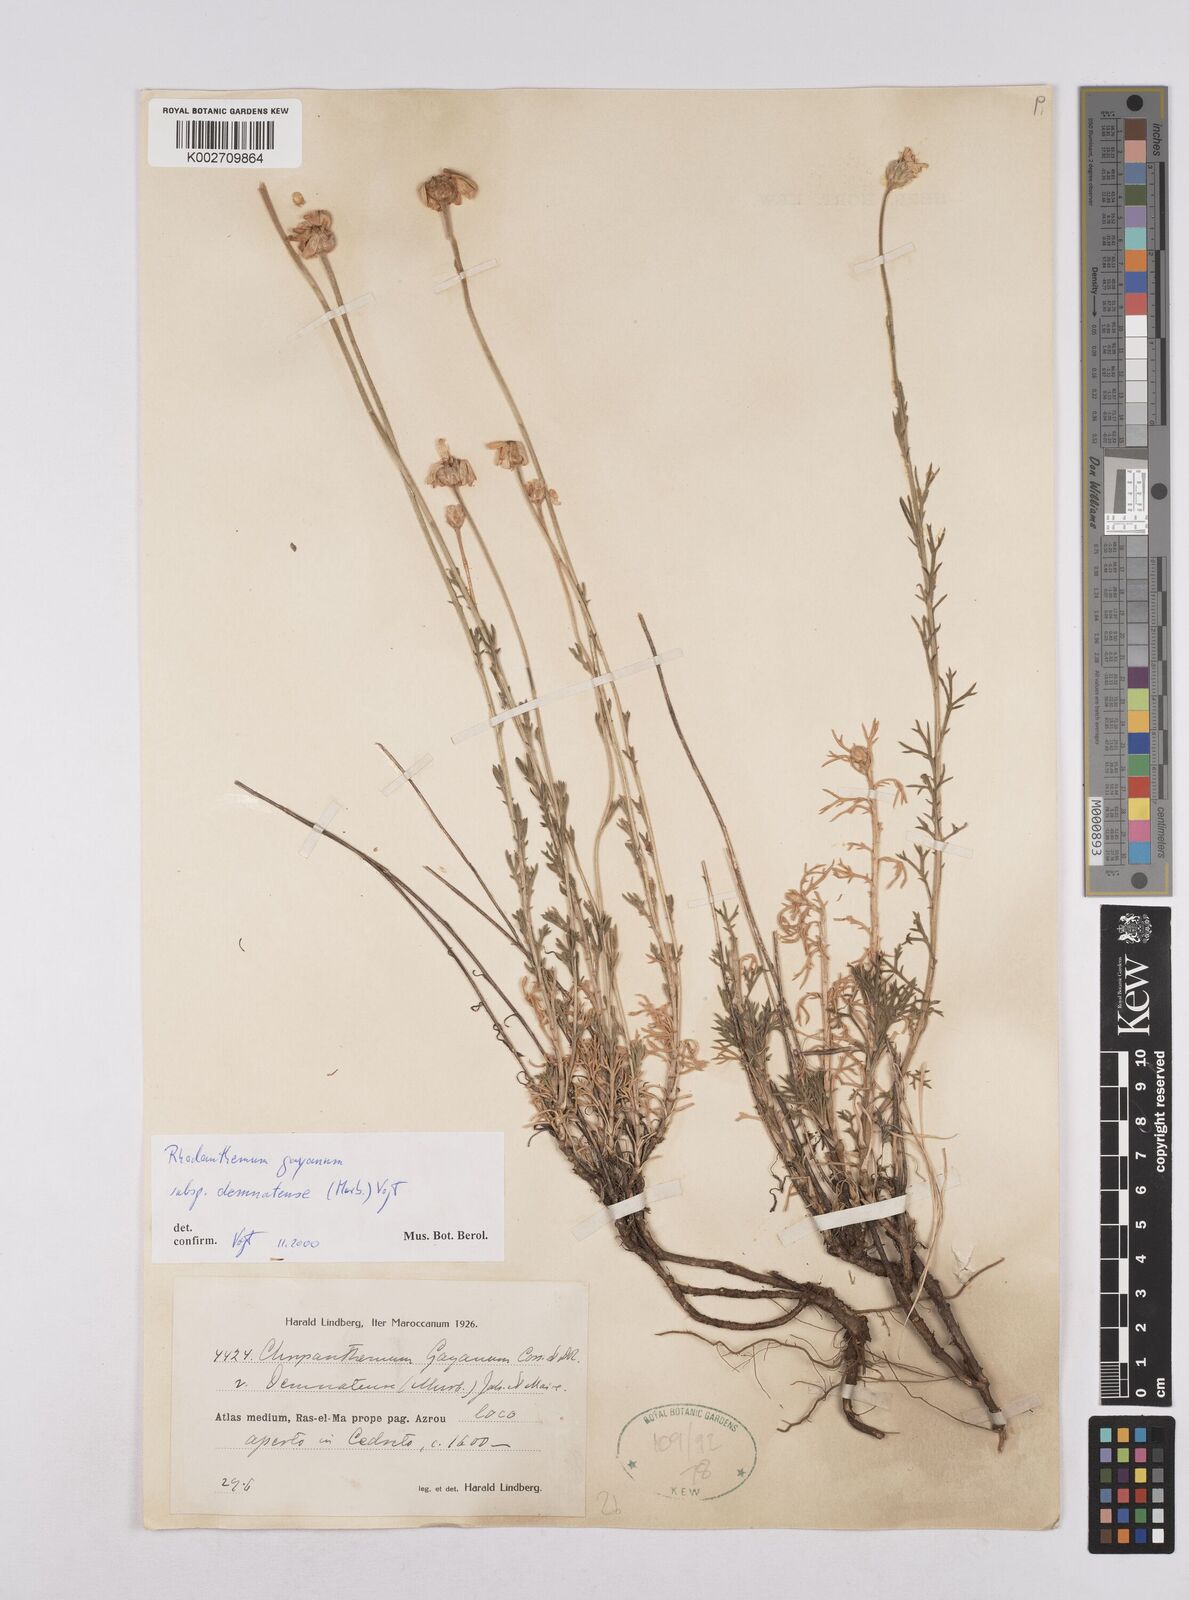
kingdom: Plantae
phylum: Tracheophyta
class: Magnoliopsida
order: Asterales
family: Asteraceae
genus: Rhodanthemum
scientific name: Rhodanthemum gayanum
